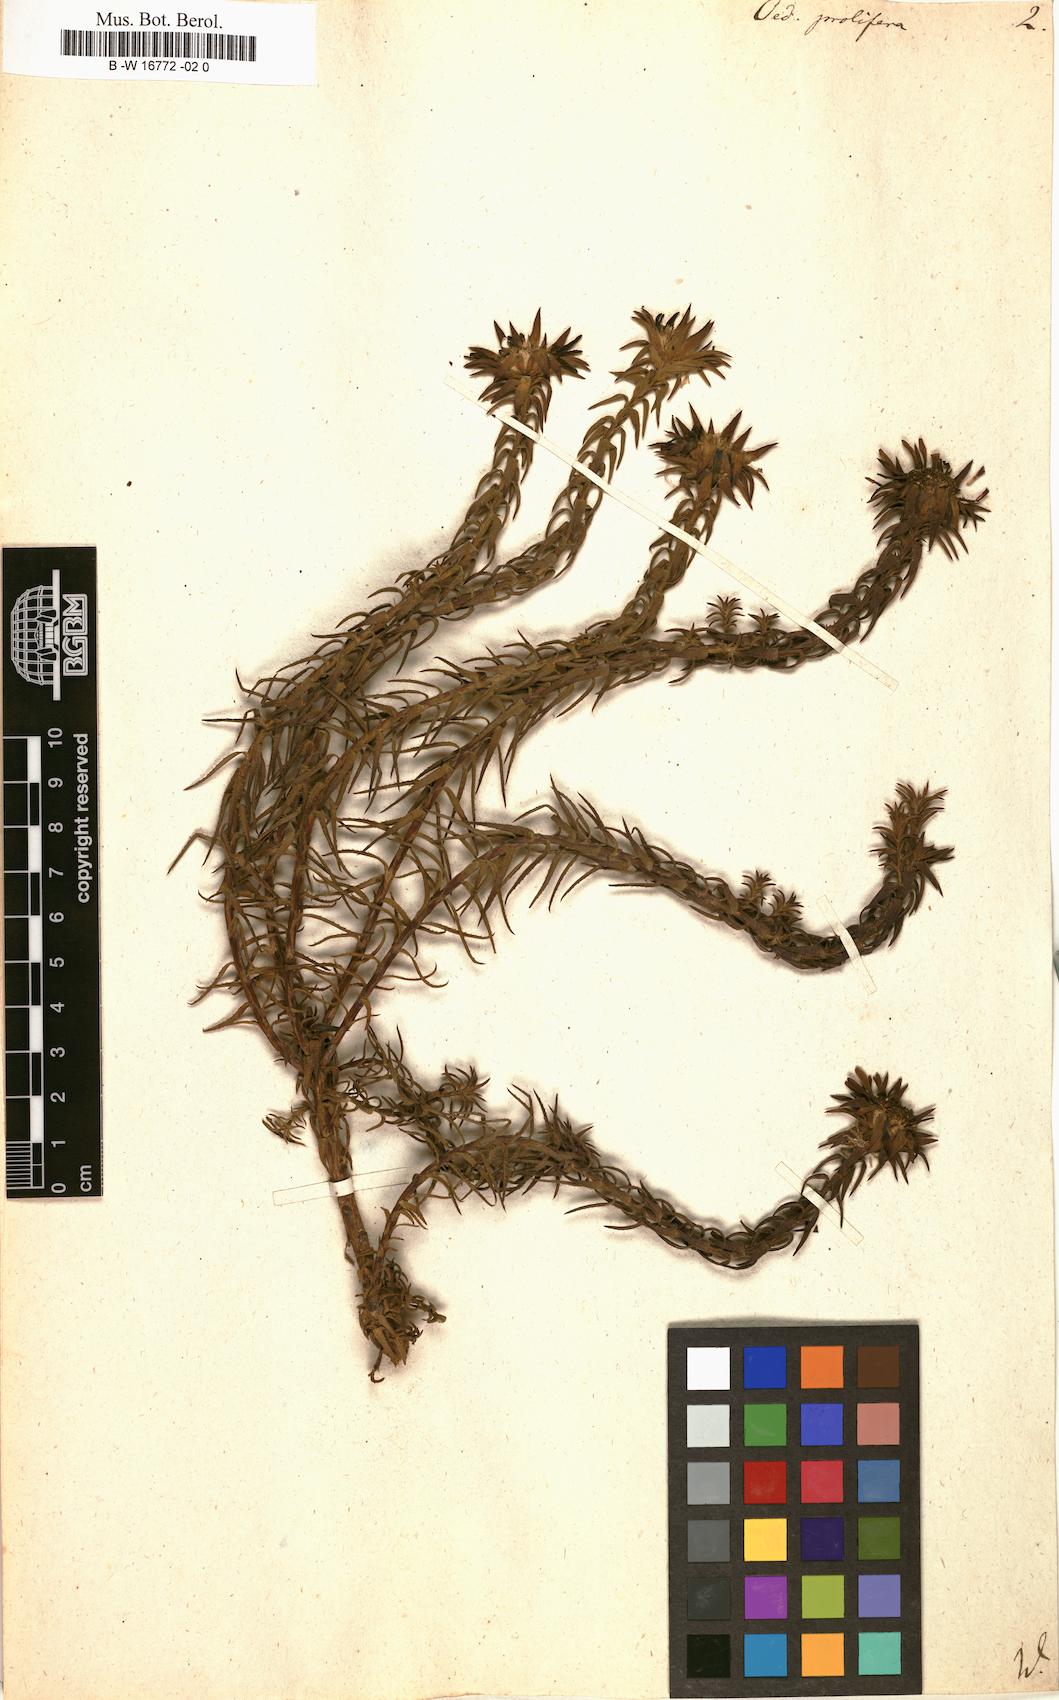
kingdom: Plantae
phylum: Tracheophyta
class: Magnoliopsida
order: Asterales
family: Asteraceae
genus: Oedera
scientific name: Oedera capensis
